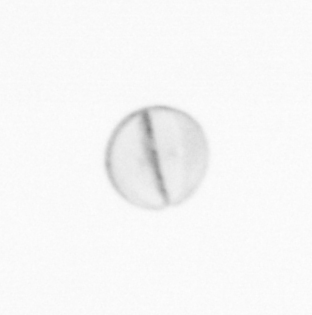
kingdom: Chromista
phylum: Ochrophyta
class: Bacillariophyceae
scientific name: Bacillariophyceae
